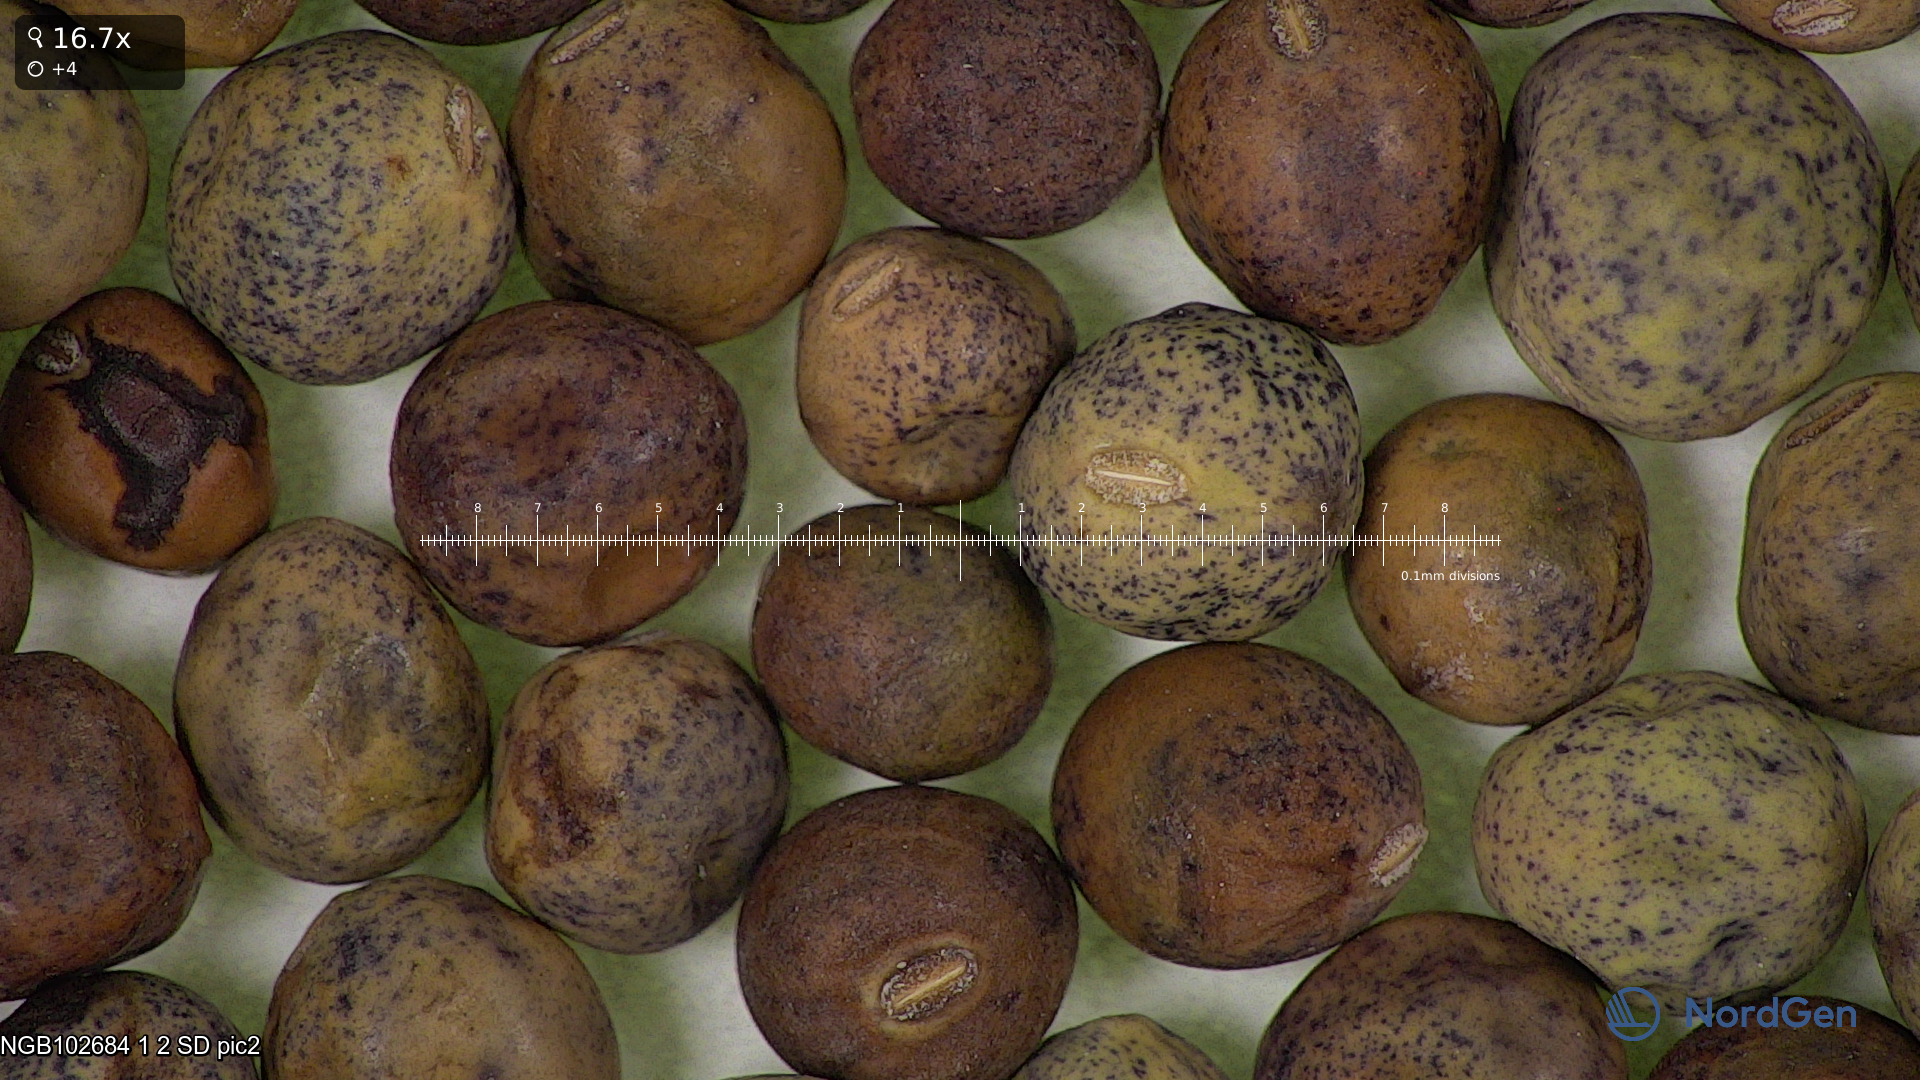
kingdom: Plantae
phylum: Tracheophyta
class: Magnoliopsida
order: Fabales
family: Fabaceae
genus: Lathyrus
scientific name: Lathyrus oleraceus
